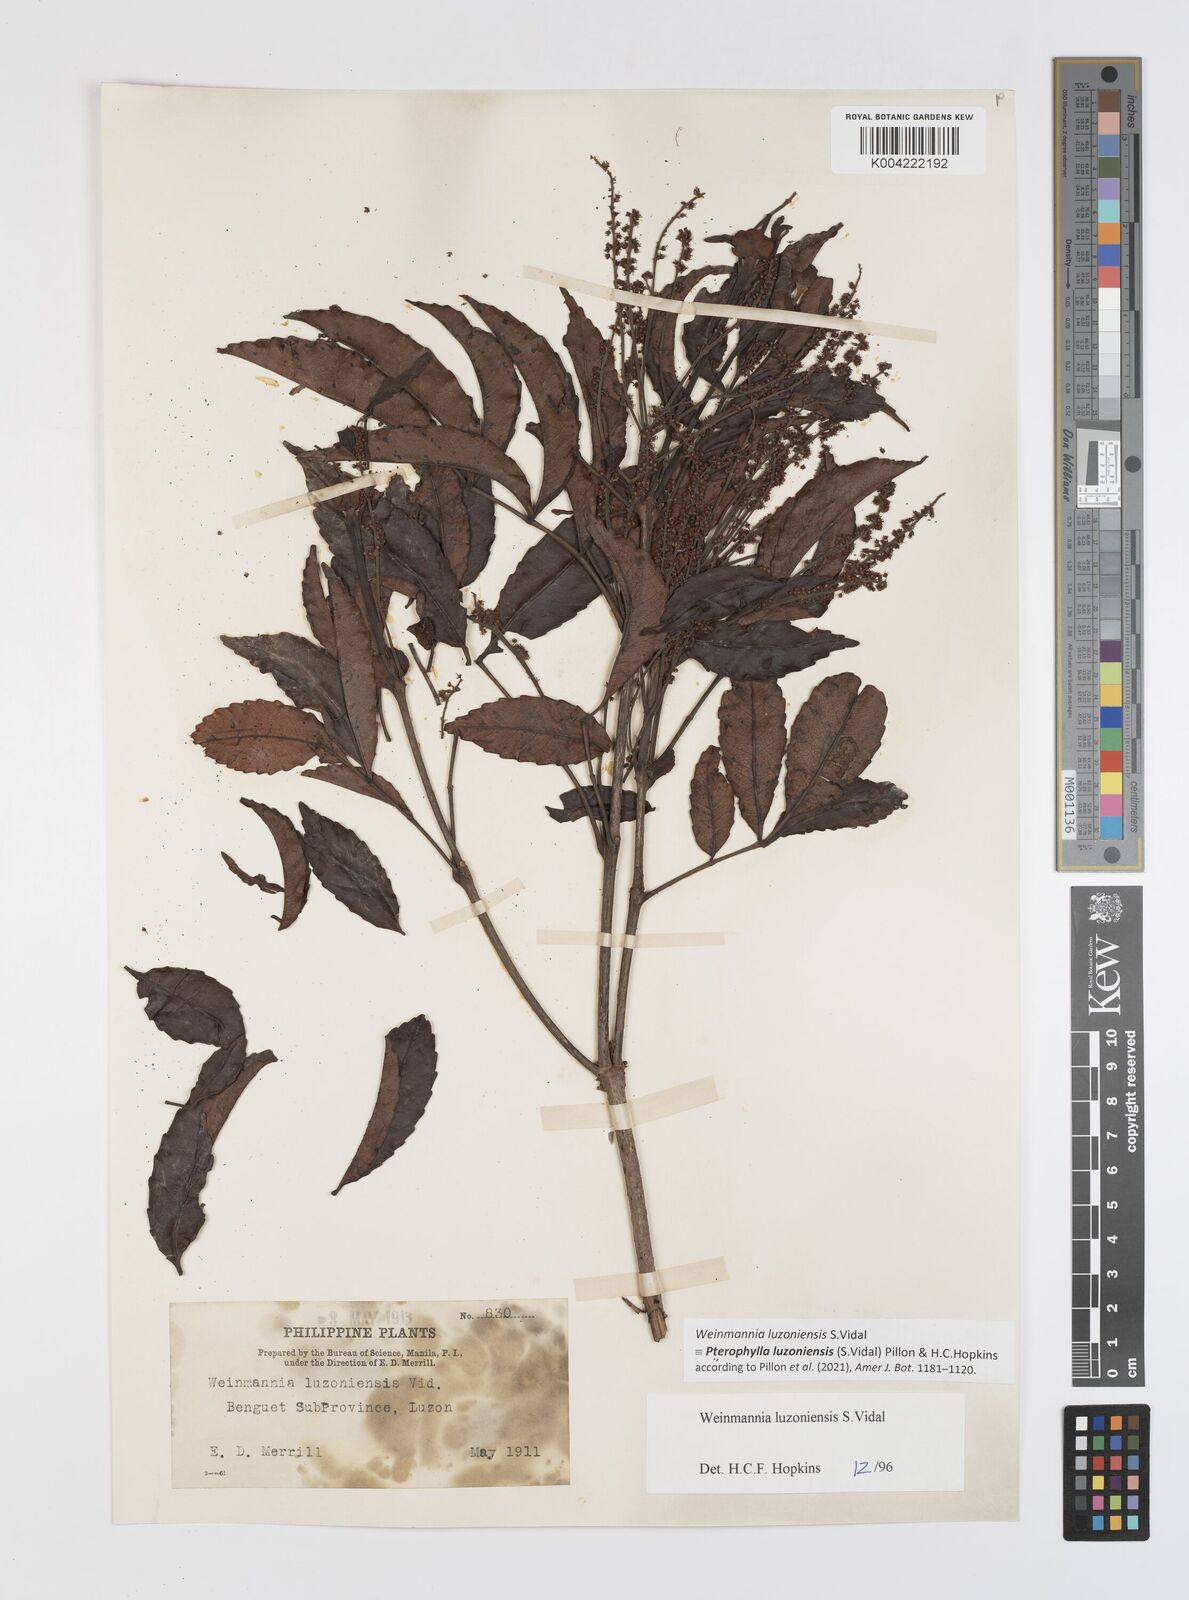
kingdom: Plantae
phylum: Tracheophyta
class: Magnoliopsida
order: Oxalidales
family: Cunoniaceae
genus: Pterophylla
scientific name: Pterophylla luzoniensis
